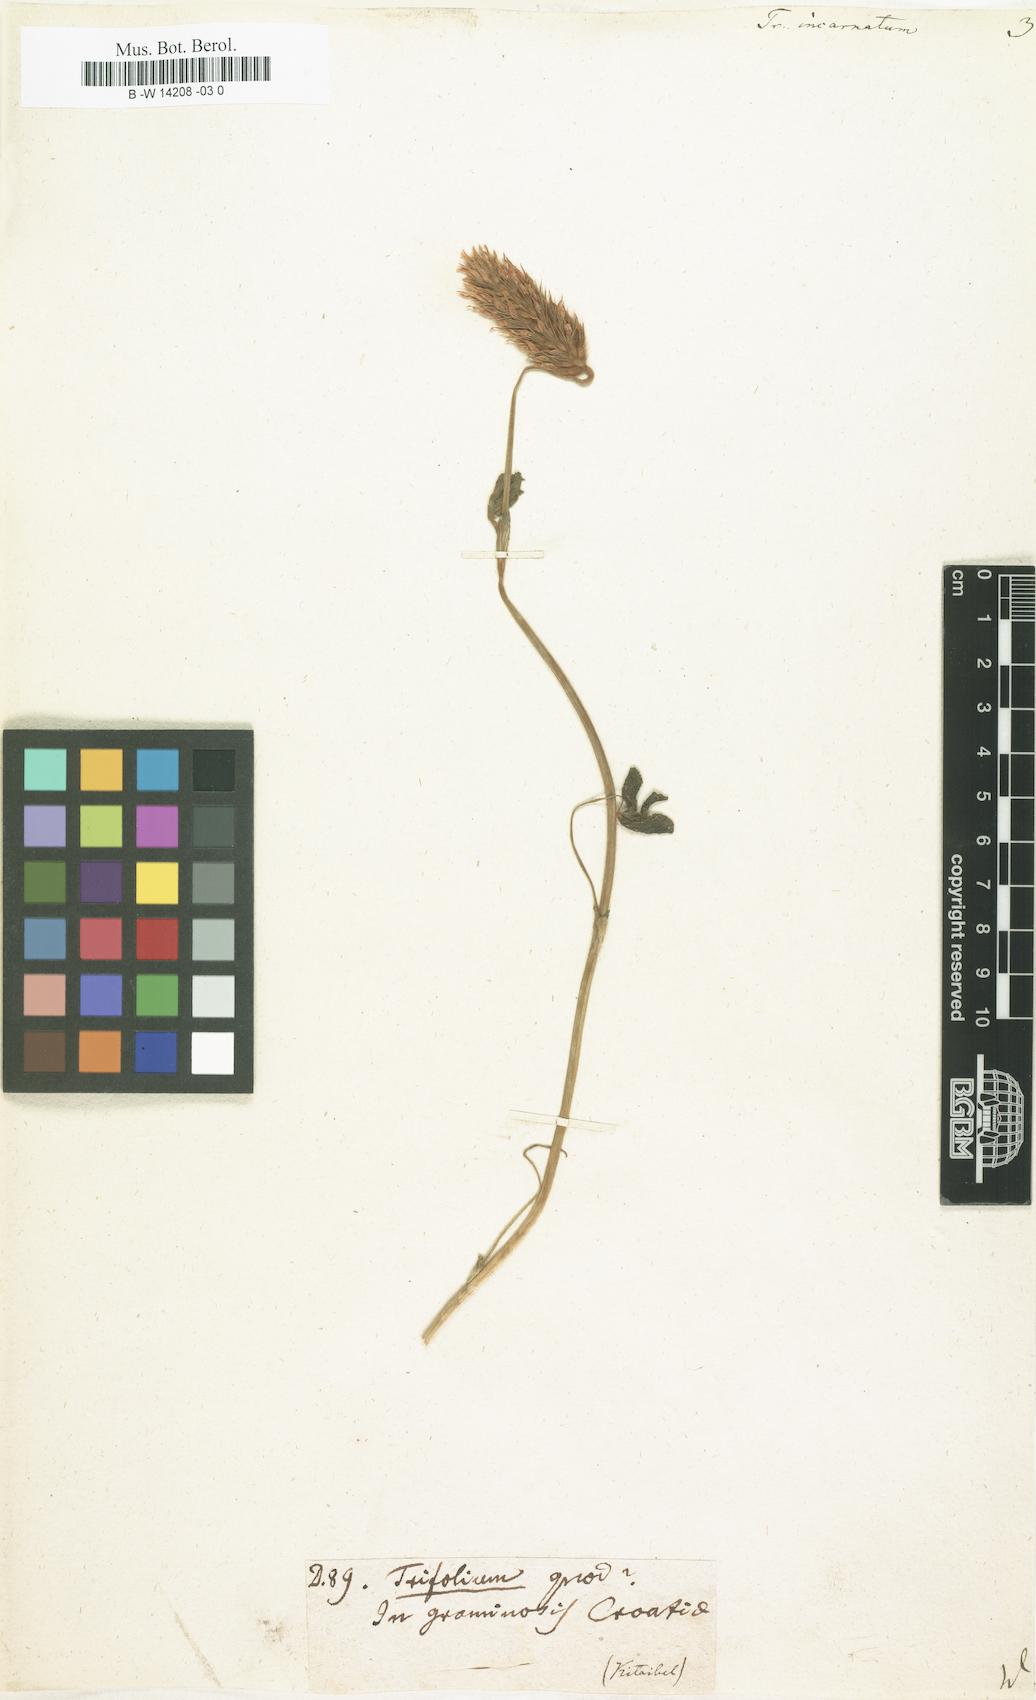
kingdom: Plantae
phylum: Tracheophyta
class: Magnoliopsida
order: Fabales
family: Fabaceae
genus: Trifolium
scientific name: Trifolium incarnatum
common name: Crimson clover
